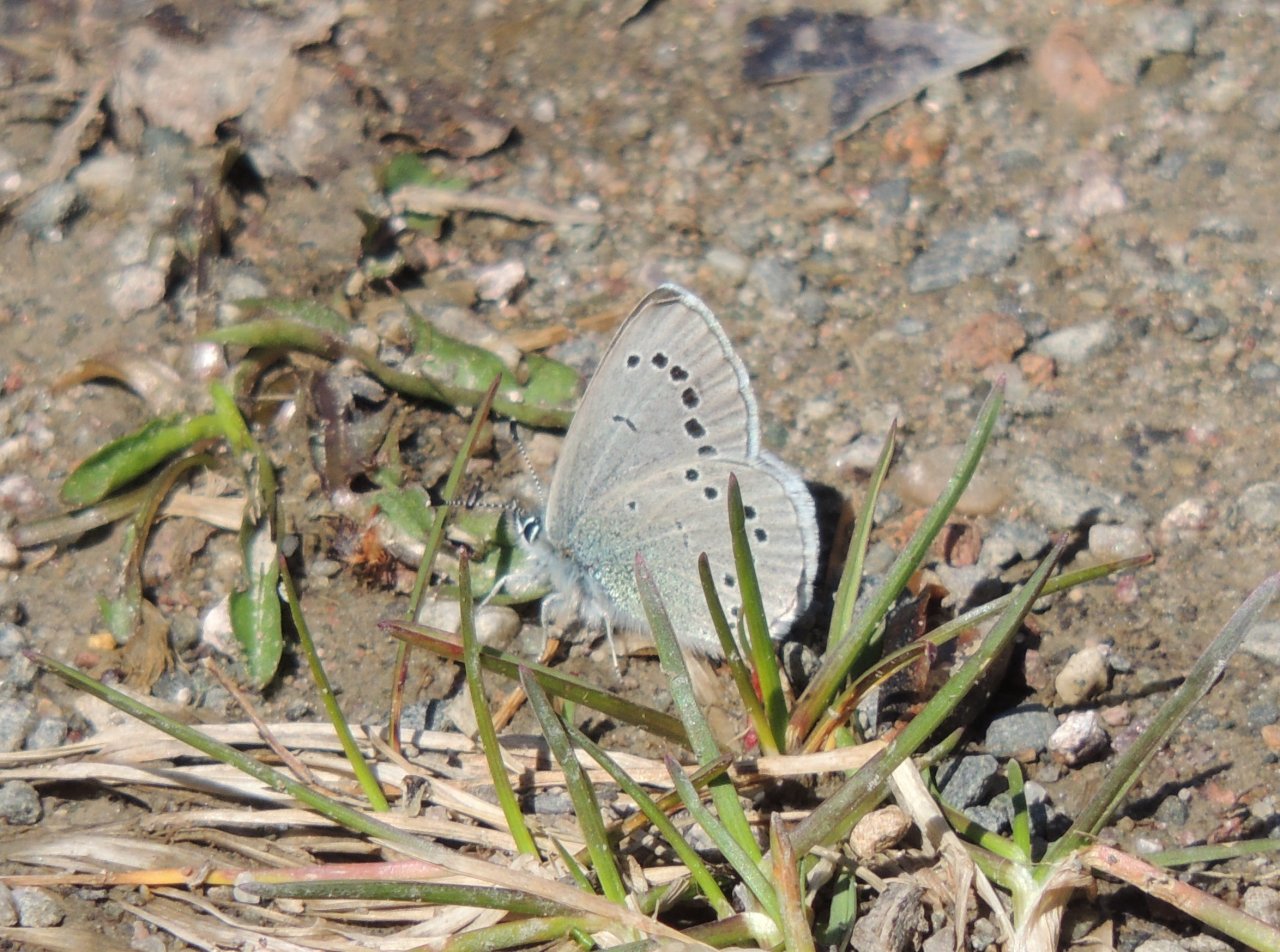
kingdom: Animalia
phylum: Arthropoda
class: Insecta
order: Lepidoptera
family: Lycaenidae
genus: Glaucopsyche
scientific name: Glaucopsyche lygdamus
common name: Silvery Blue
